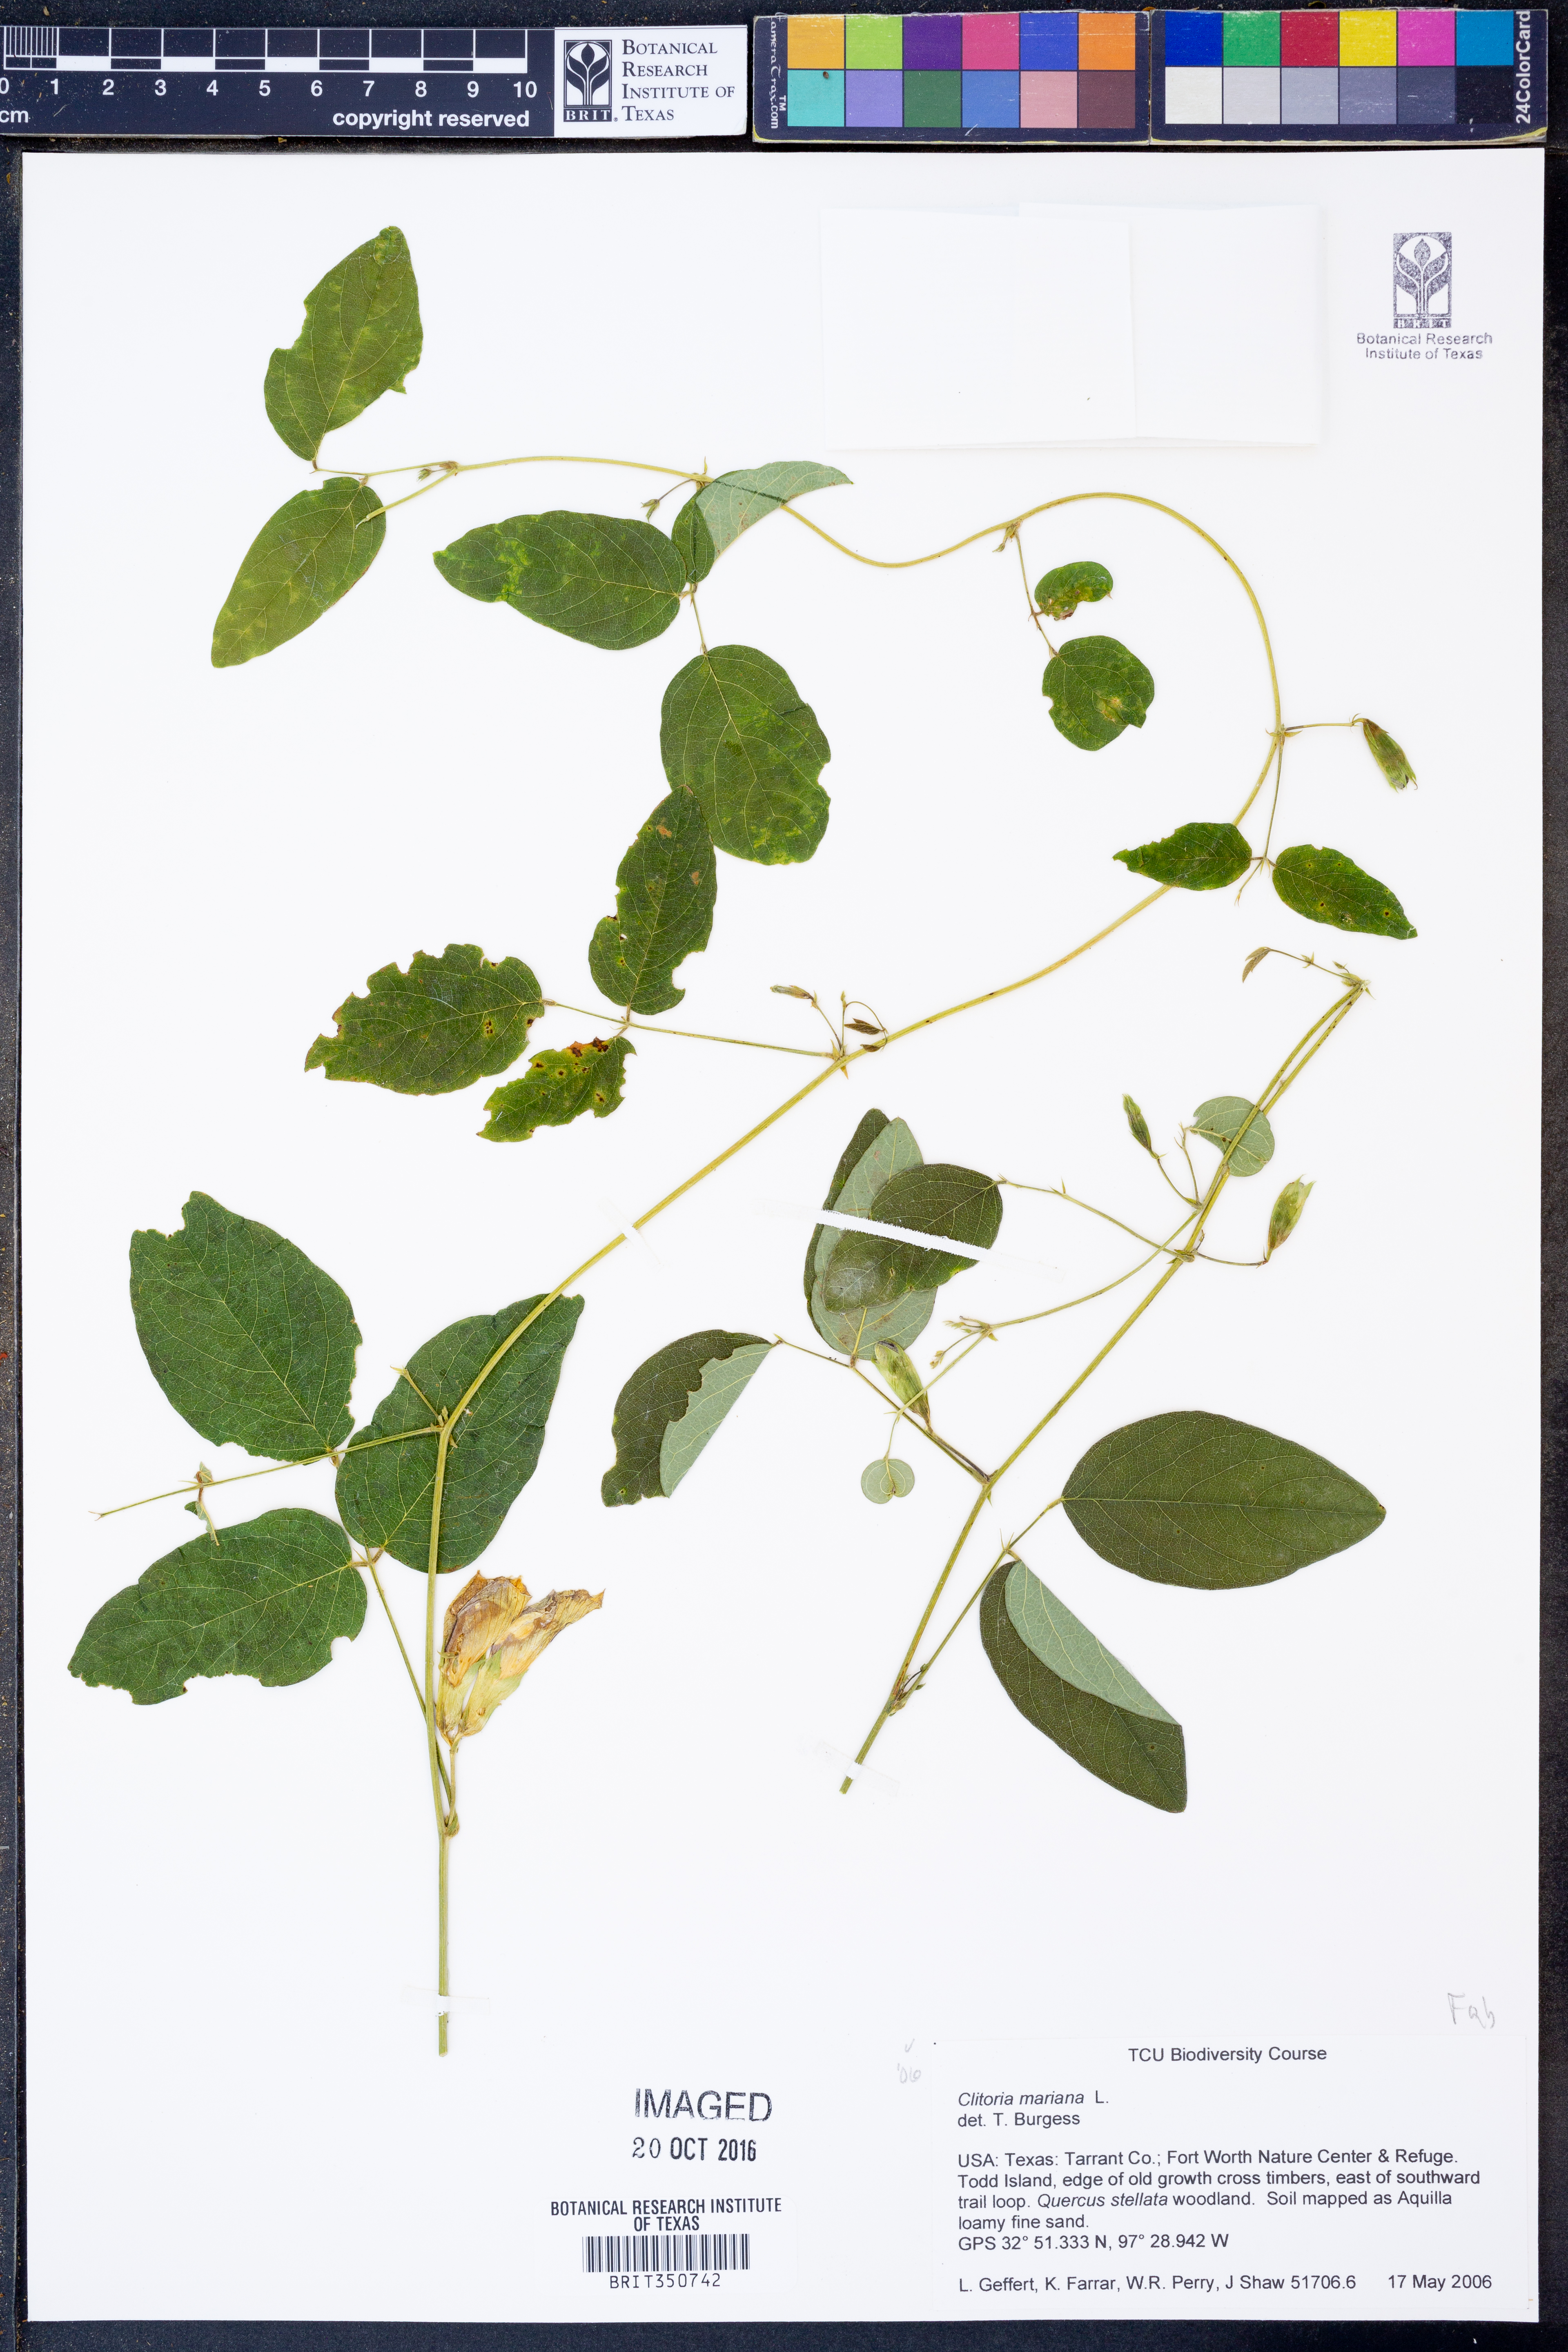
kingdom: Plantae
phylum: Tracheophyta
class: Magnoliopsida
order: Fabales
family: Fabaceae
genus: Clitoria
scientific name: Clitoria mariana
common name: Butterfly-pea
